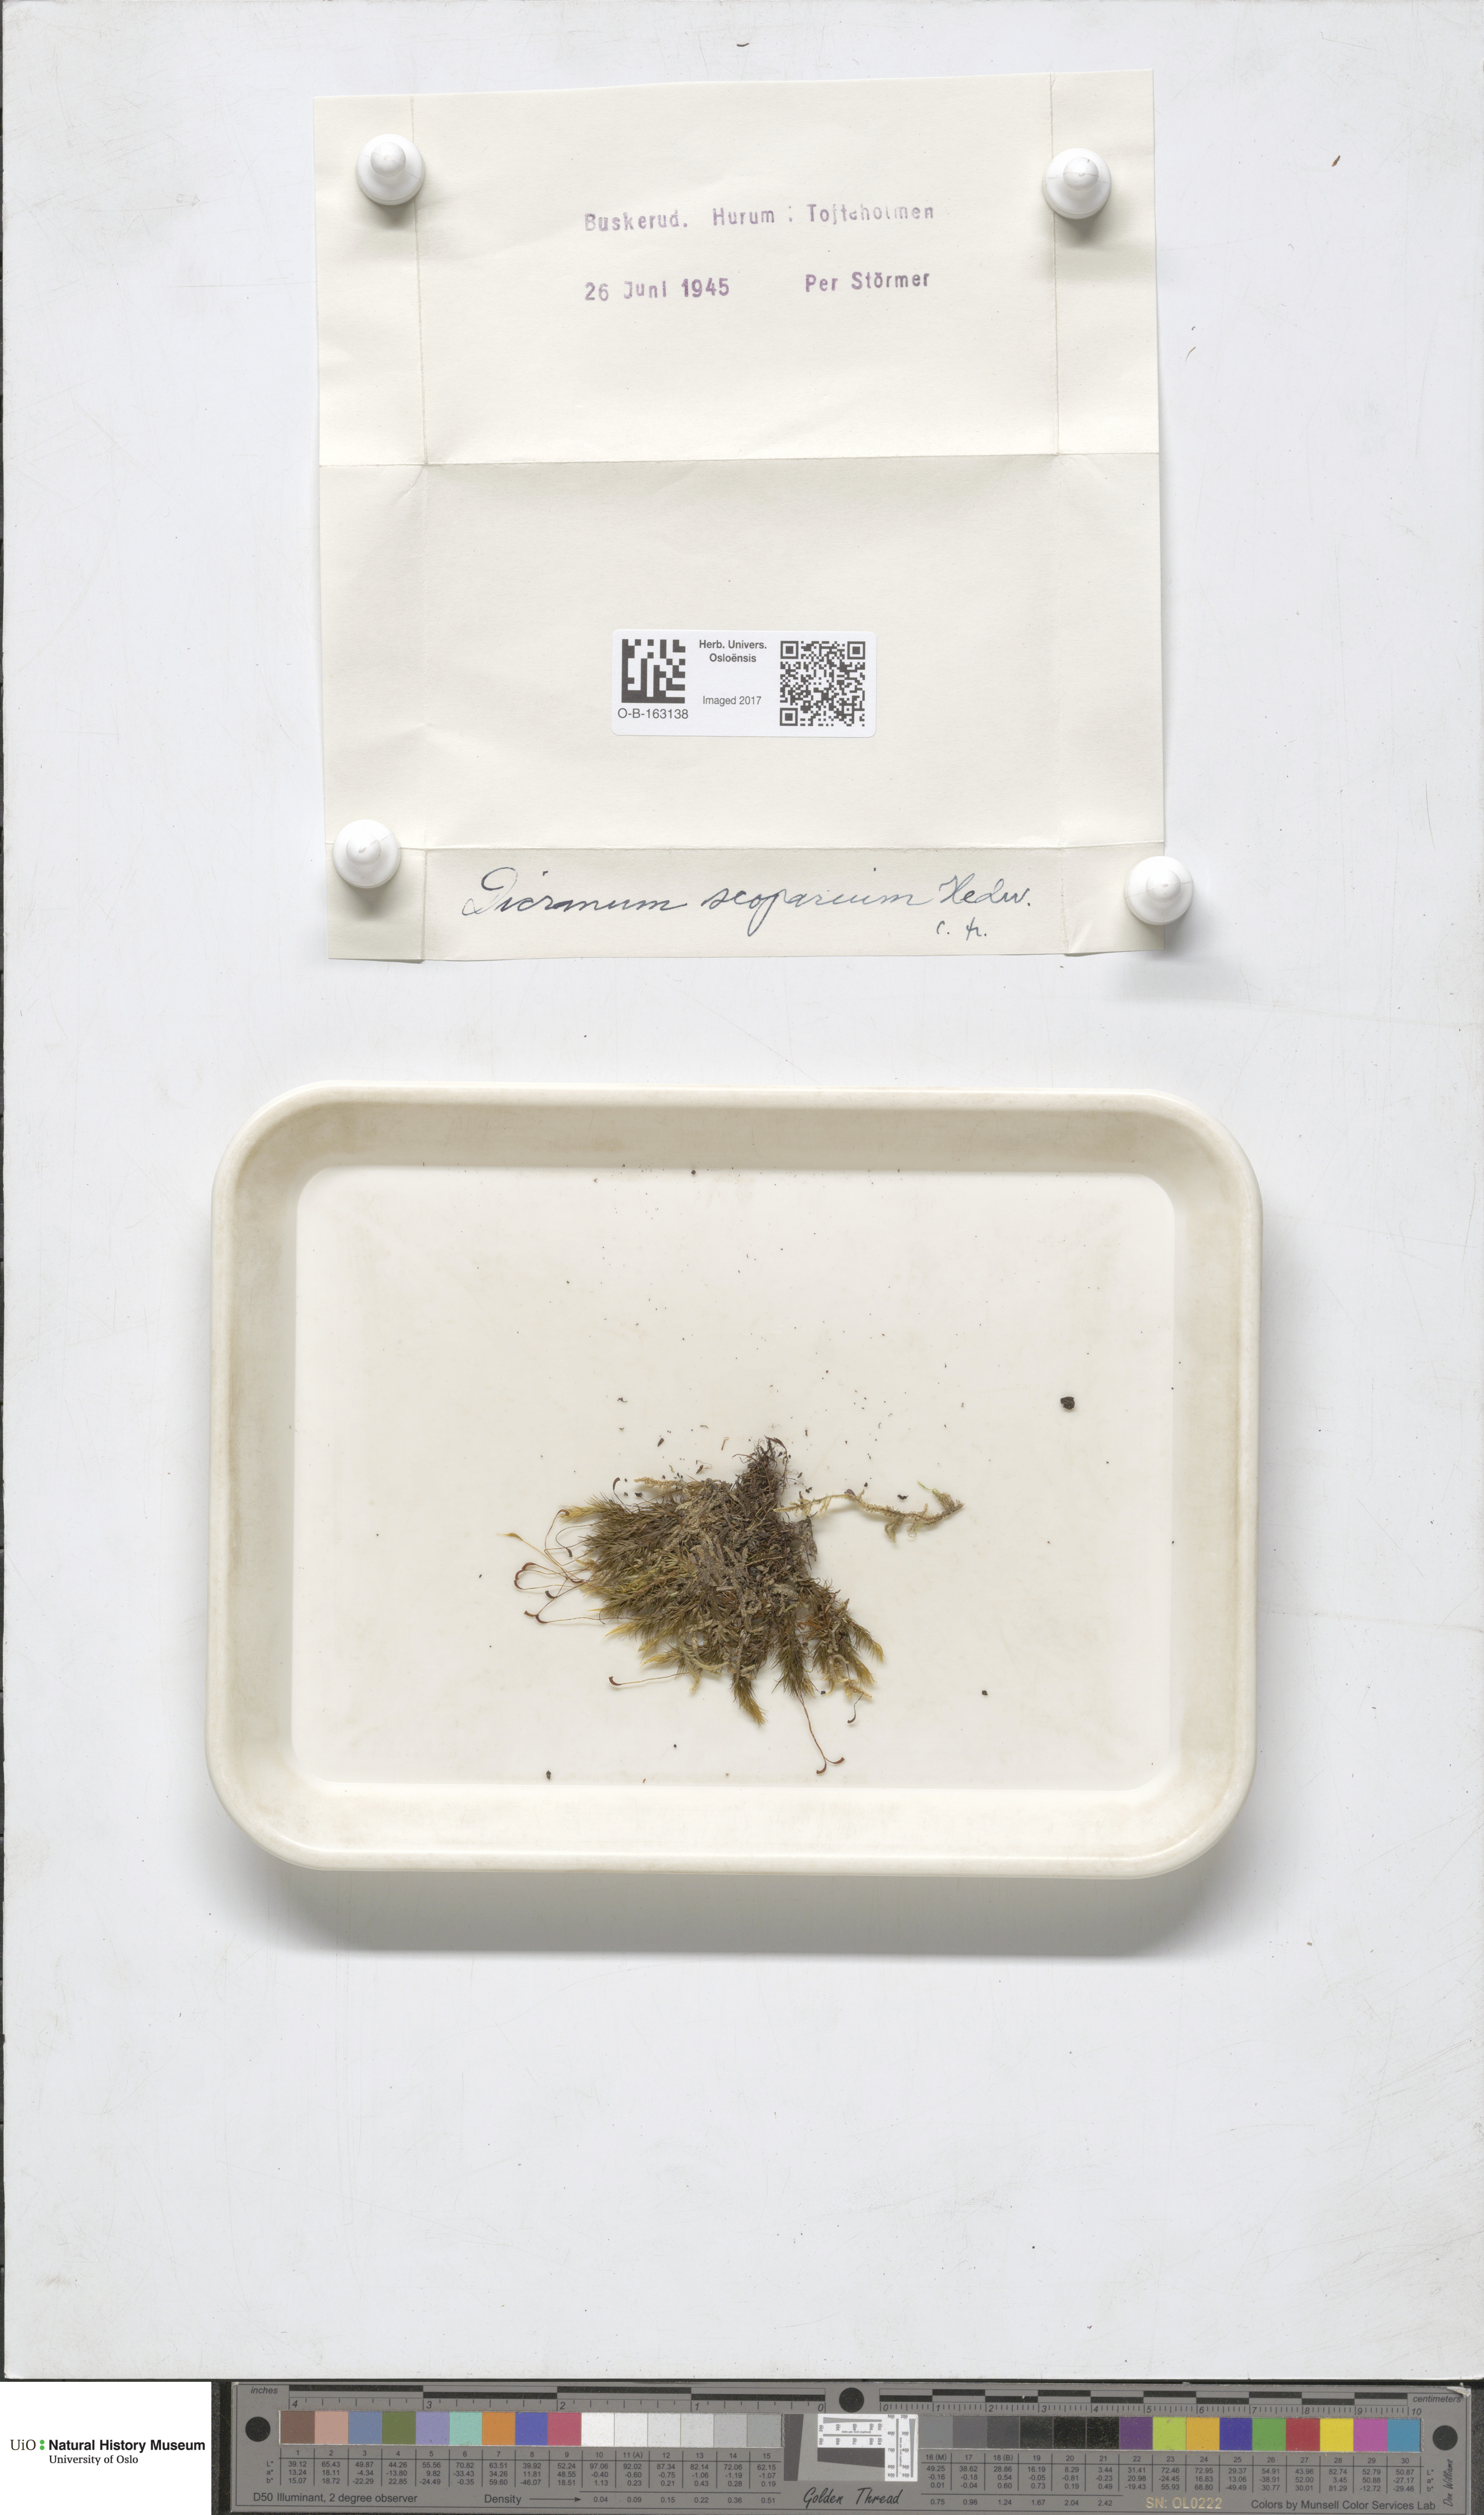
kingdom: Plantae
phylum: Bryophyta
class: Bryopsida
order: Dicranales
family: Dicranaceae
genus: Dicranum
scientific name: Dicranum scoparium
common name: Broom fork-moss
